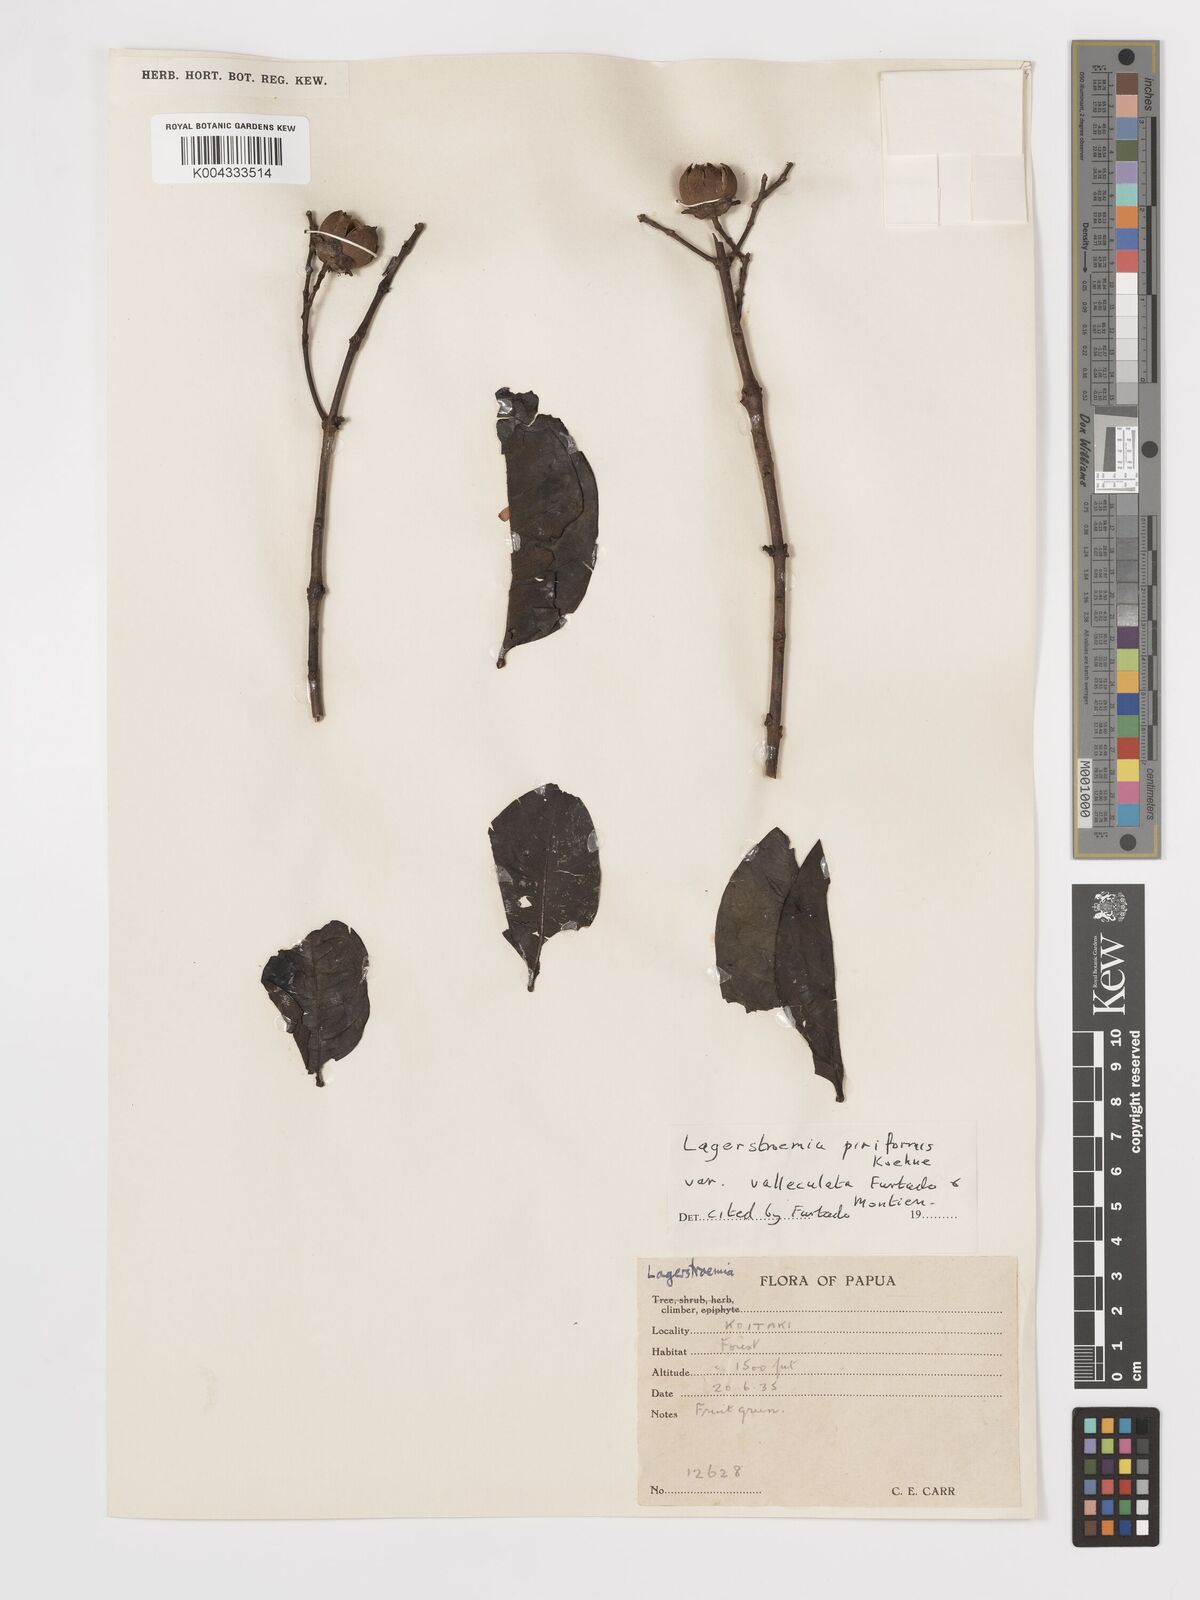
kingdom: Plantae
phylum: Tracheophyta
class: Magnoliopsida
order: Myrtales
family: Lythraceae
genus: Lagerstroemia
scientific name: Lagerstroemia celebica
